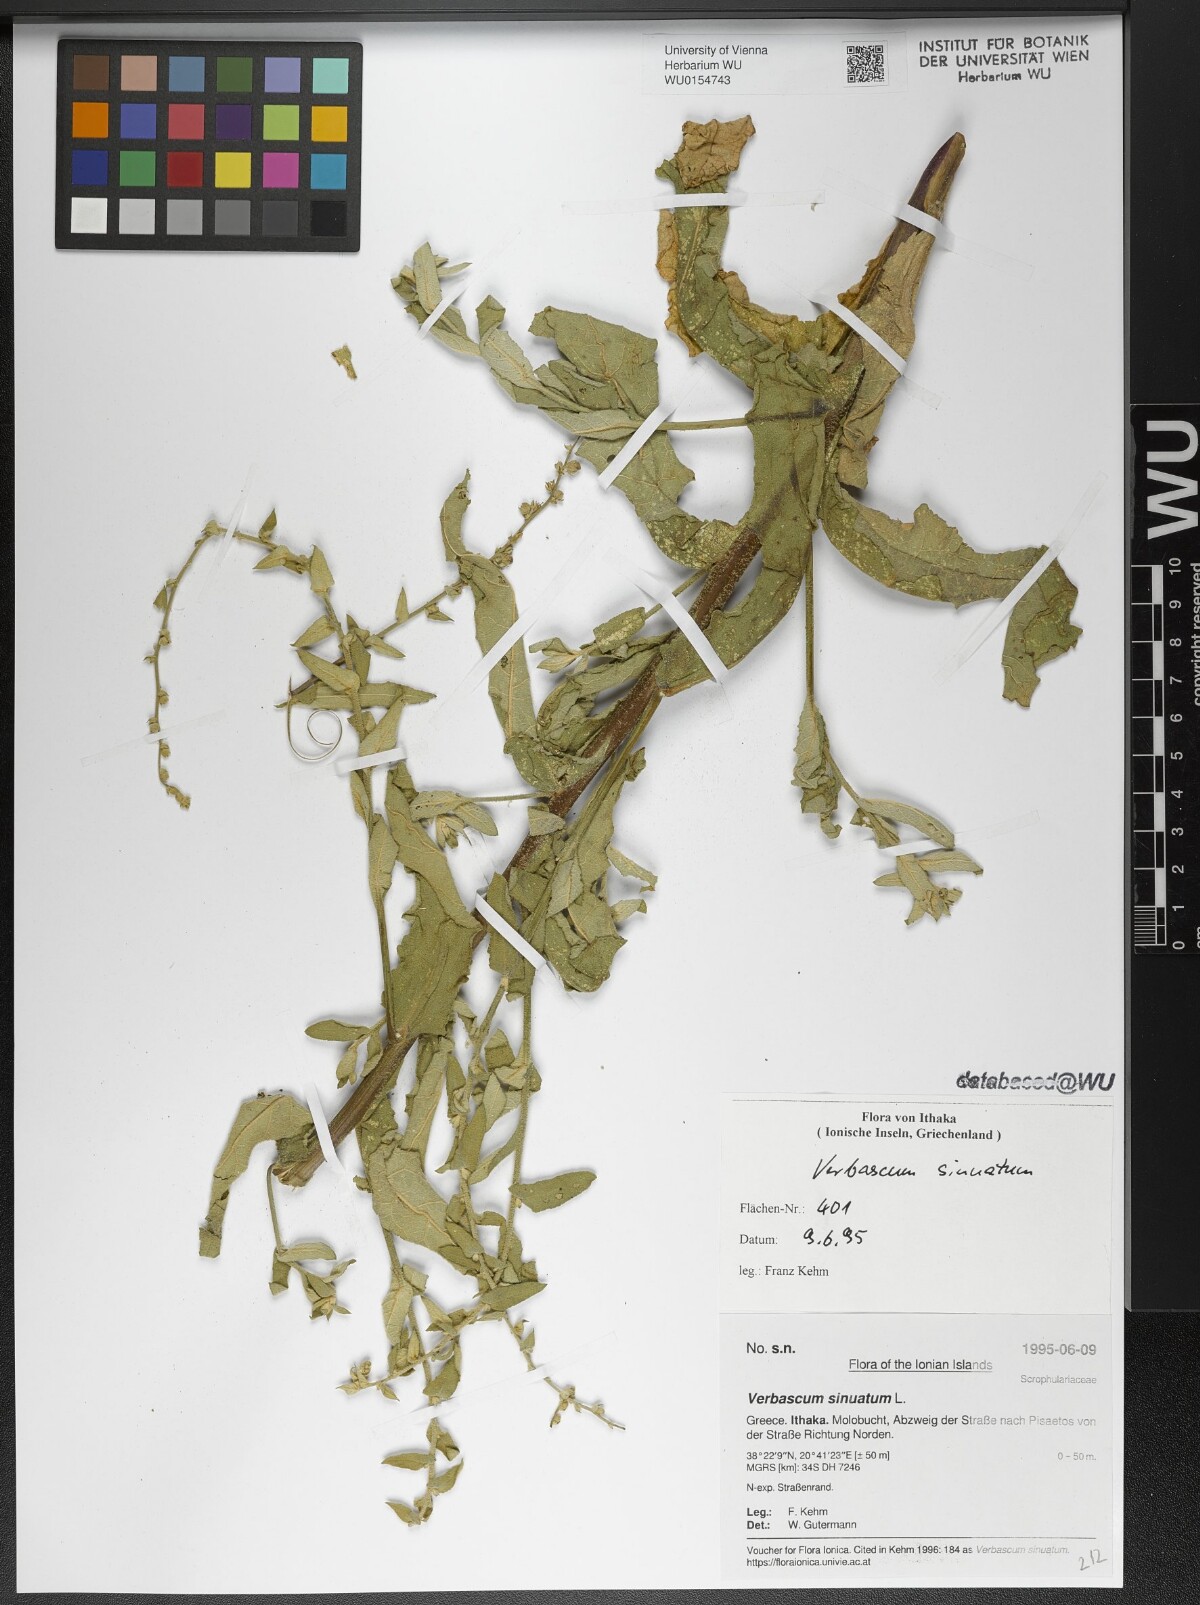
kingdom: Plantae
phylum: Tracheophyta
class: Magnoliopsida
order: Lamiales
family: Scrophulariaceae
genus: Verbascum
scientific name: Verbascum sinuatum
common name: Wavyleaf mullein
